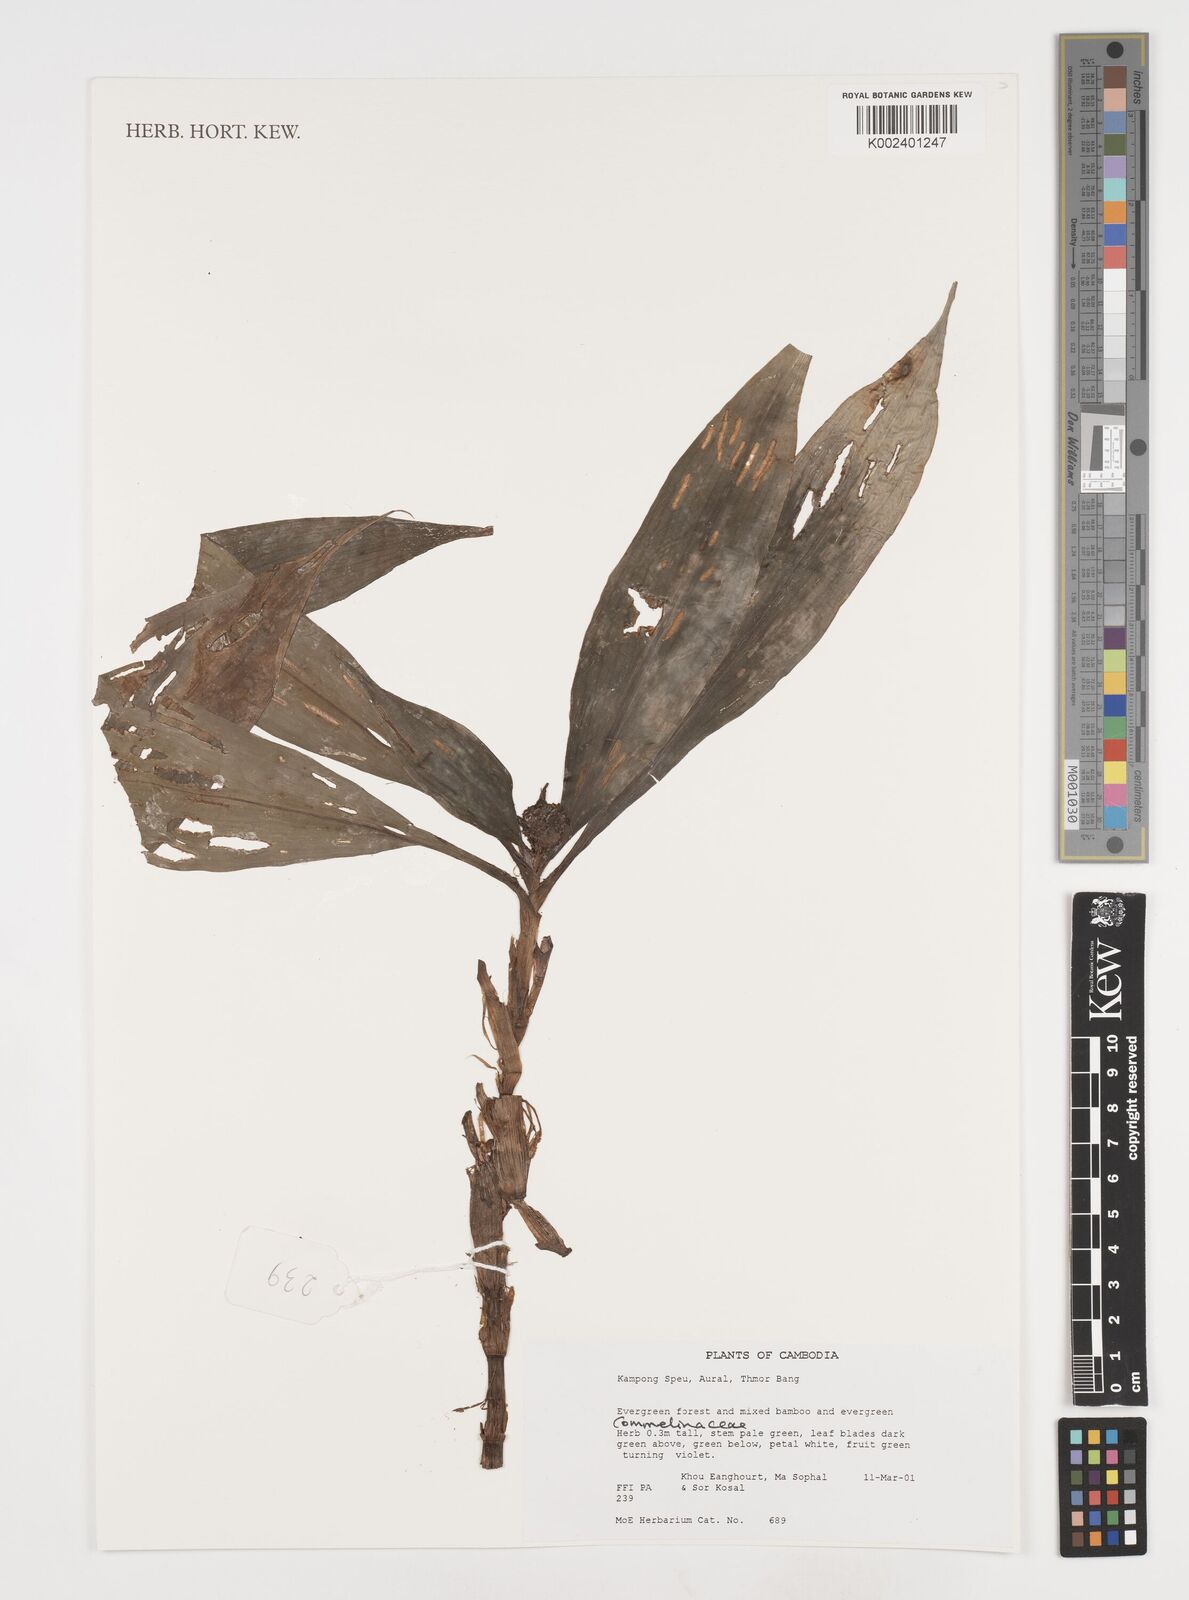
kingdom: Plantae
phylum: Tracheophyta
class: Liliopsida
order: Commelinales
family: Commelinaceae
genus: Pollia
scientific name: Pollia
